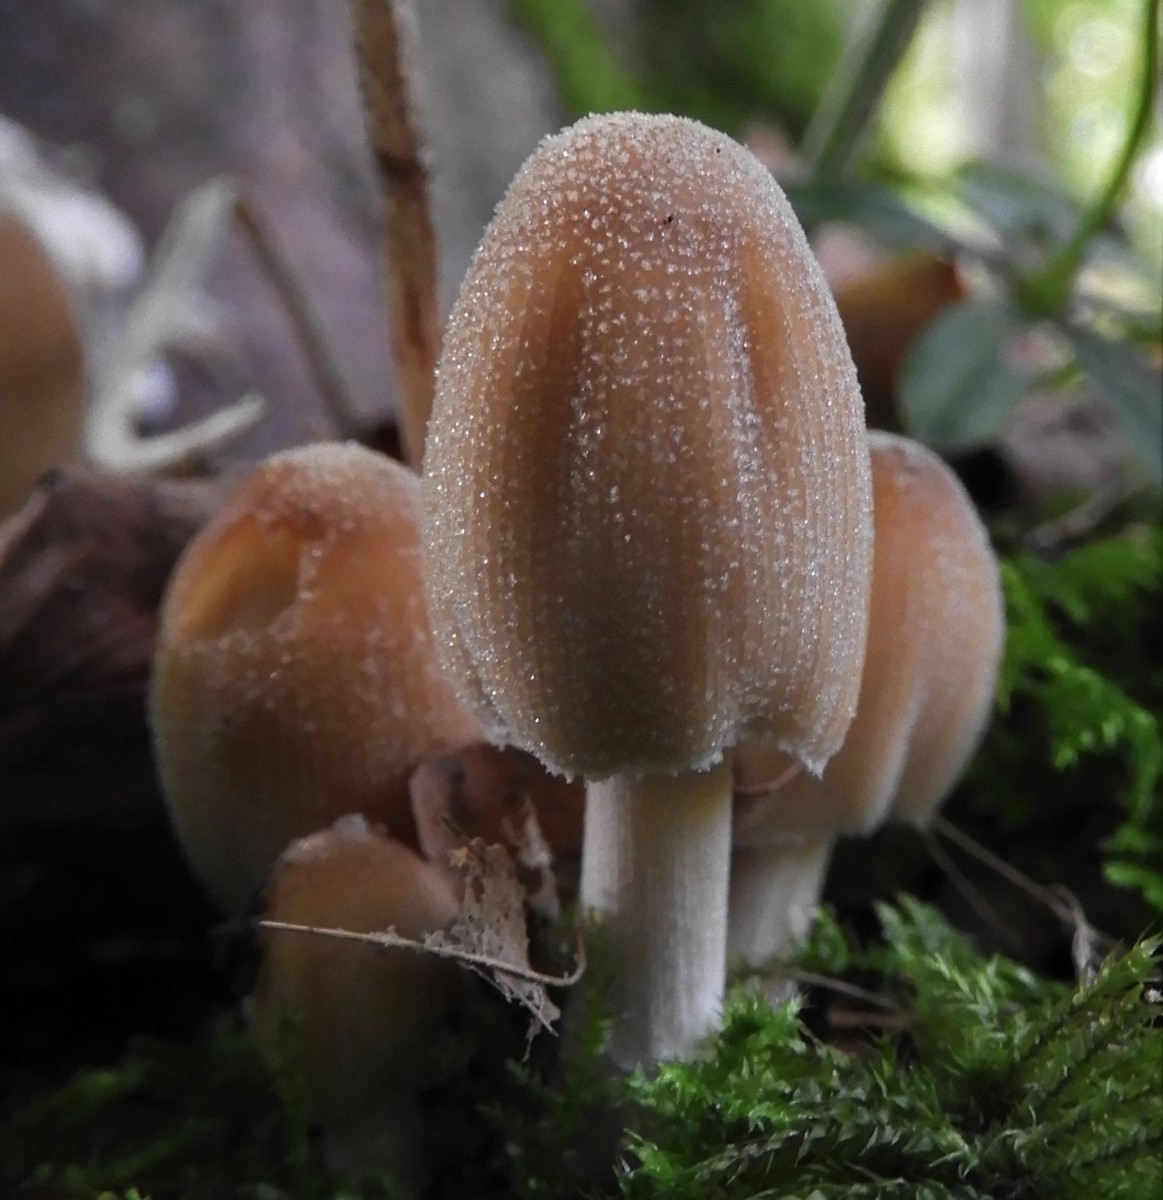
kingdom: Fungi
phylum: Basidiomycota
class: Agaricomycetes
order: Agaricales
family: Psathyrellaceae
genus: Coprinellus
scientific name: Coprinellus micaceus
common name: glimmer-blækhat
